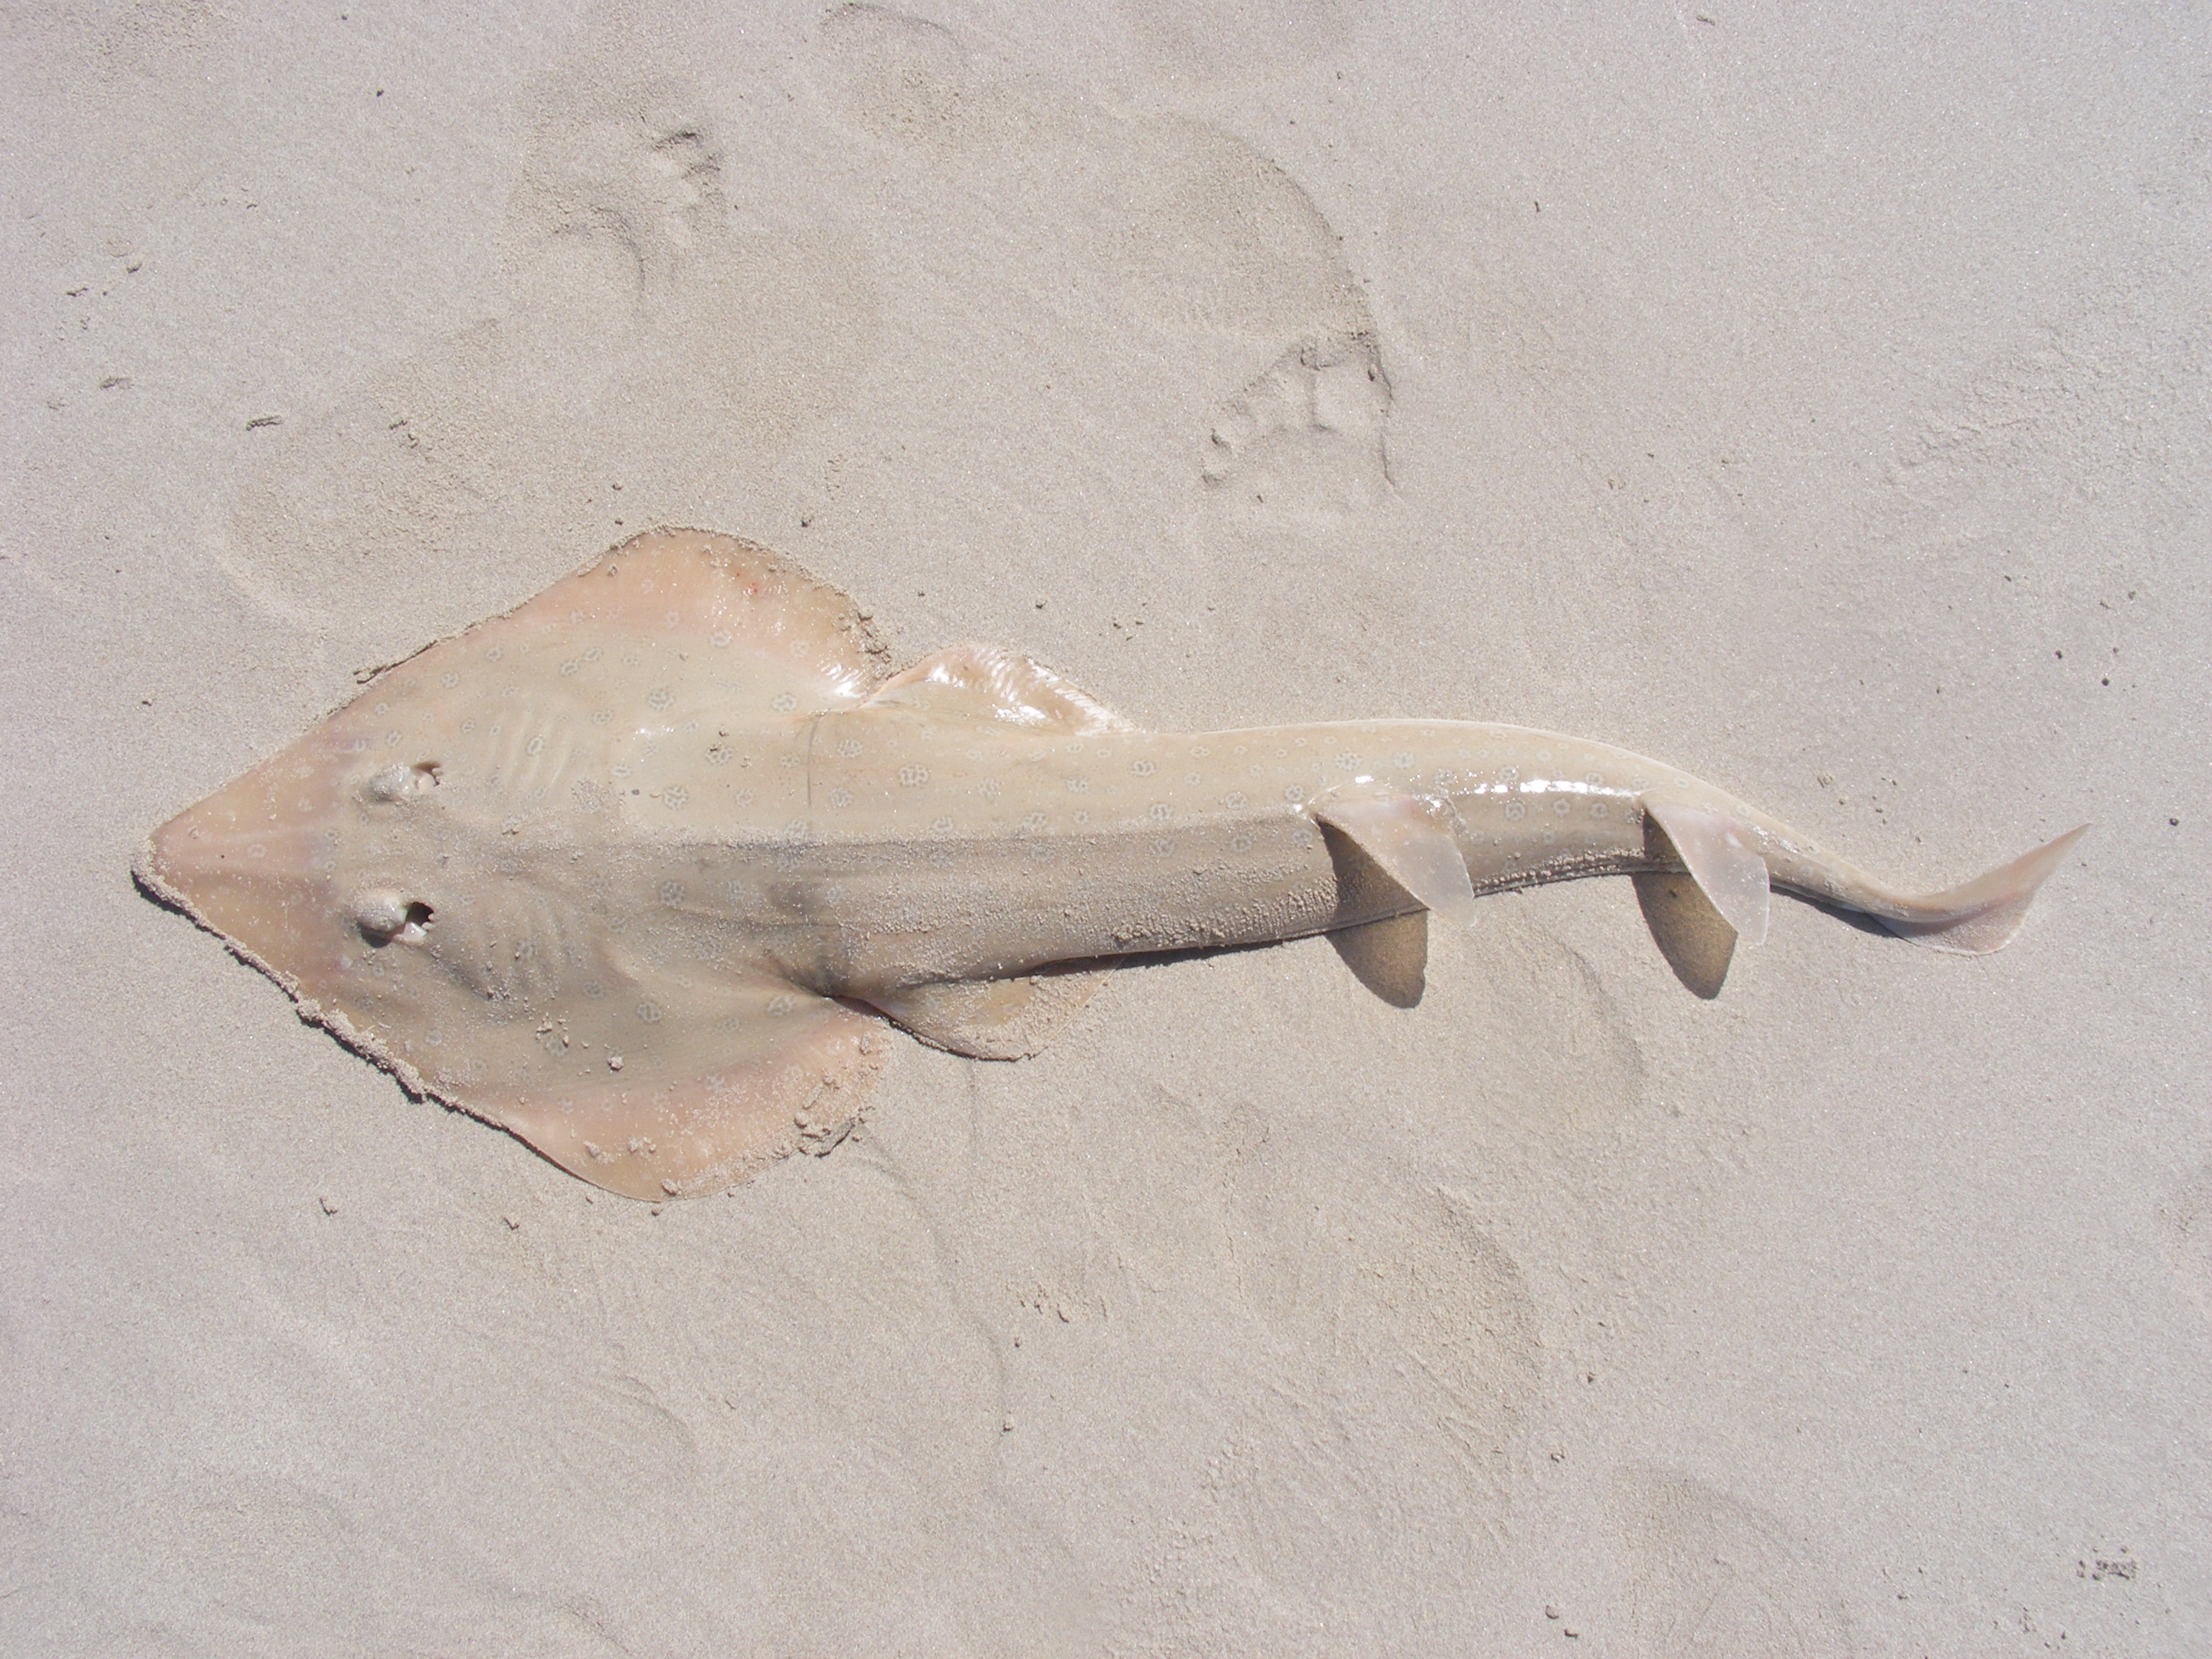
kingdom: Animalia
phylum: Chordata
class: Elasmobranchii
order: Rhinopristiformes
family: Rhinobatidae
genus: Acroteriobatus
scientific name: Acroteriobatus annulatus
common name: Lesser guitarfish
